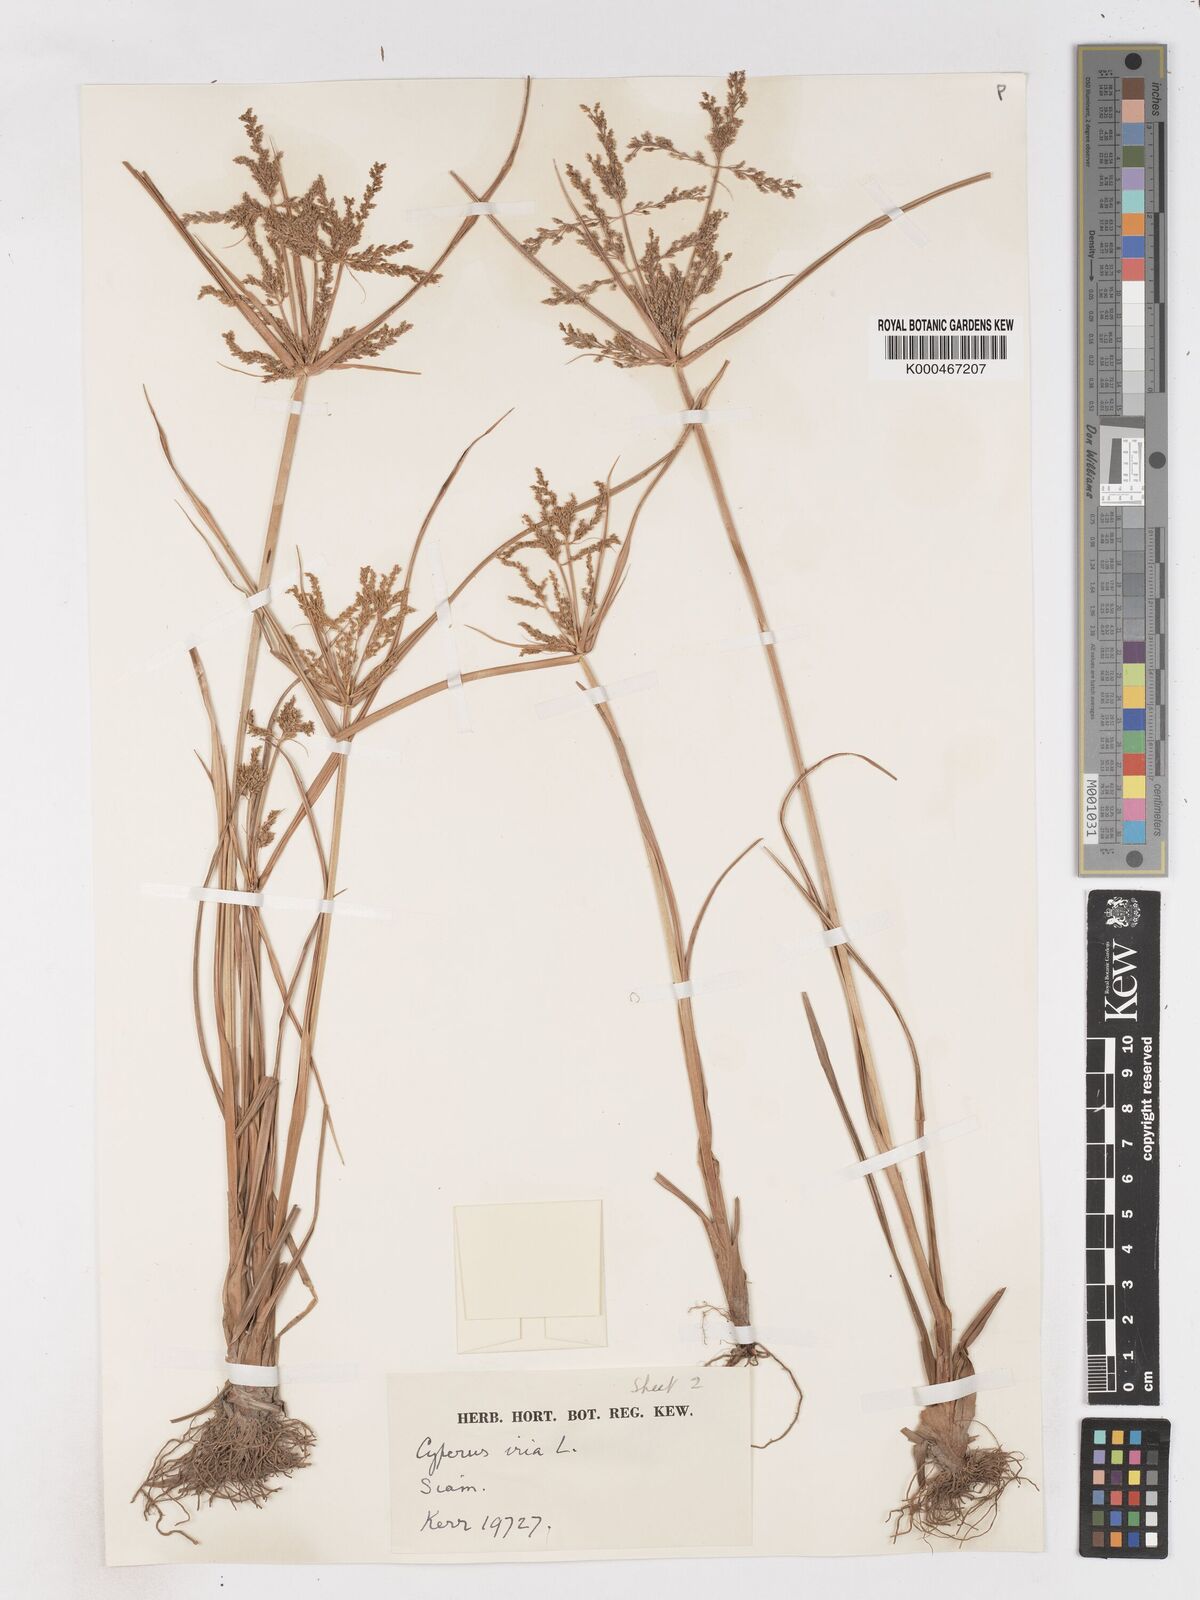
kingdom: Plantae
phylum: Tracheophyta
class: Liliopsida
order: Poales
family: Cyperaceae
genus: Cyperus
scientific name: Cyperus iria
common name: Ricefield flatsedge
